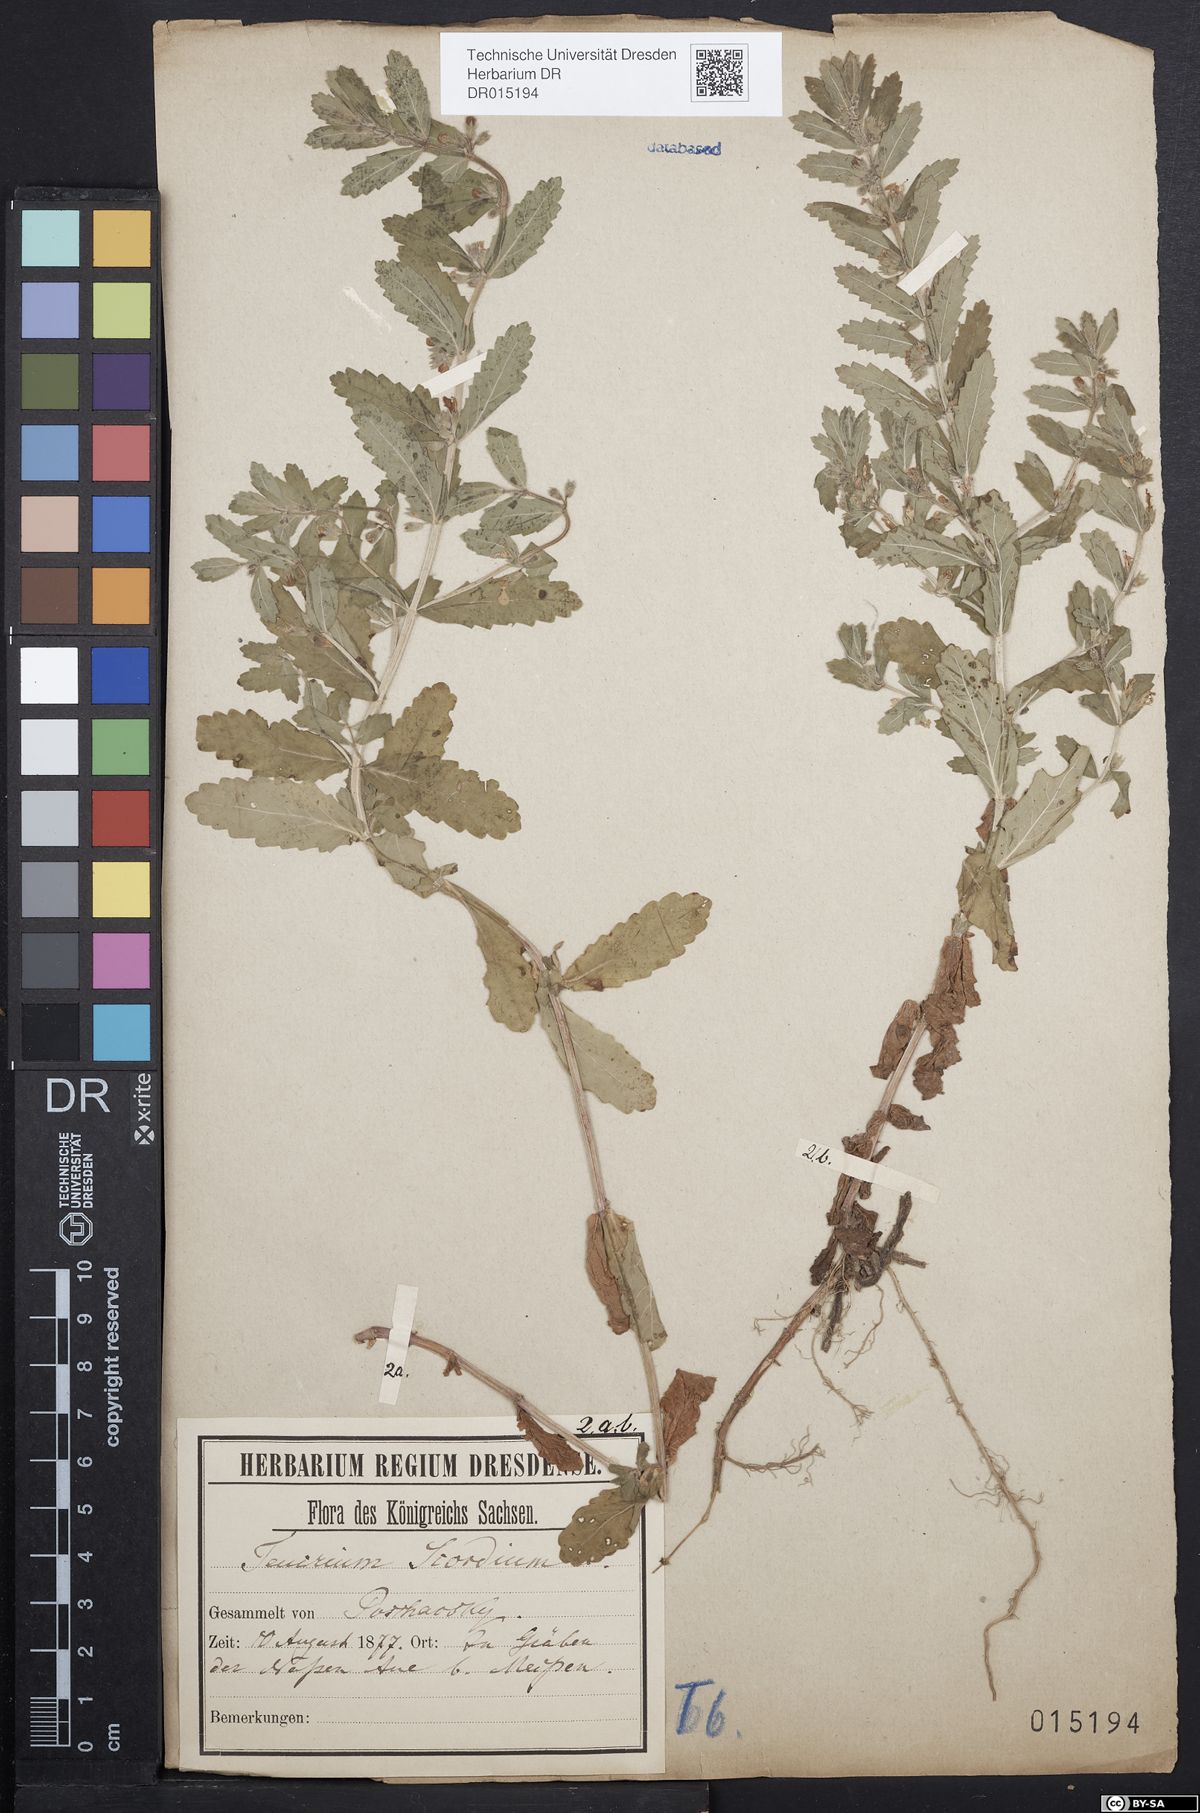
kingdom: Plantae
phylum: Tracheophyta
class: Magnoliopsida
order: Lamiales
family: Lamiaceae
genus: Teucrium
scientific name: Teucrium scordium
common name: Water germander
